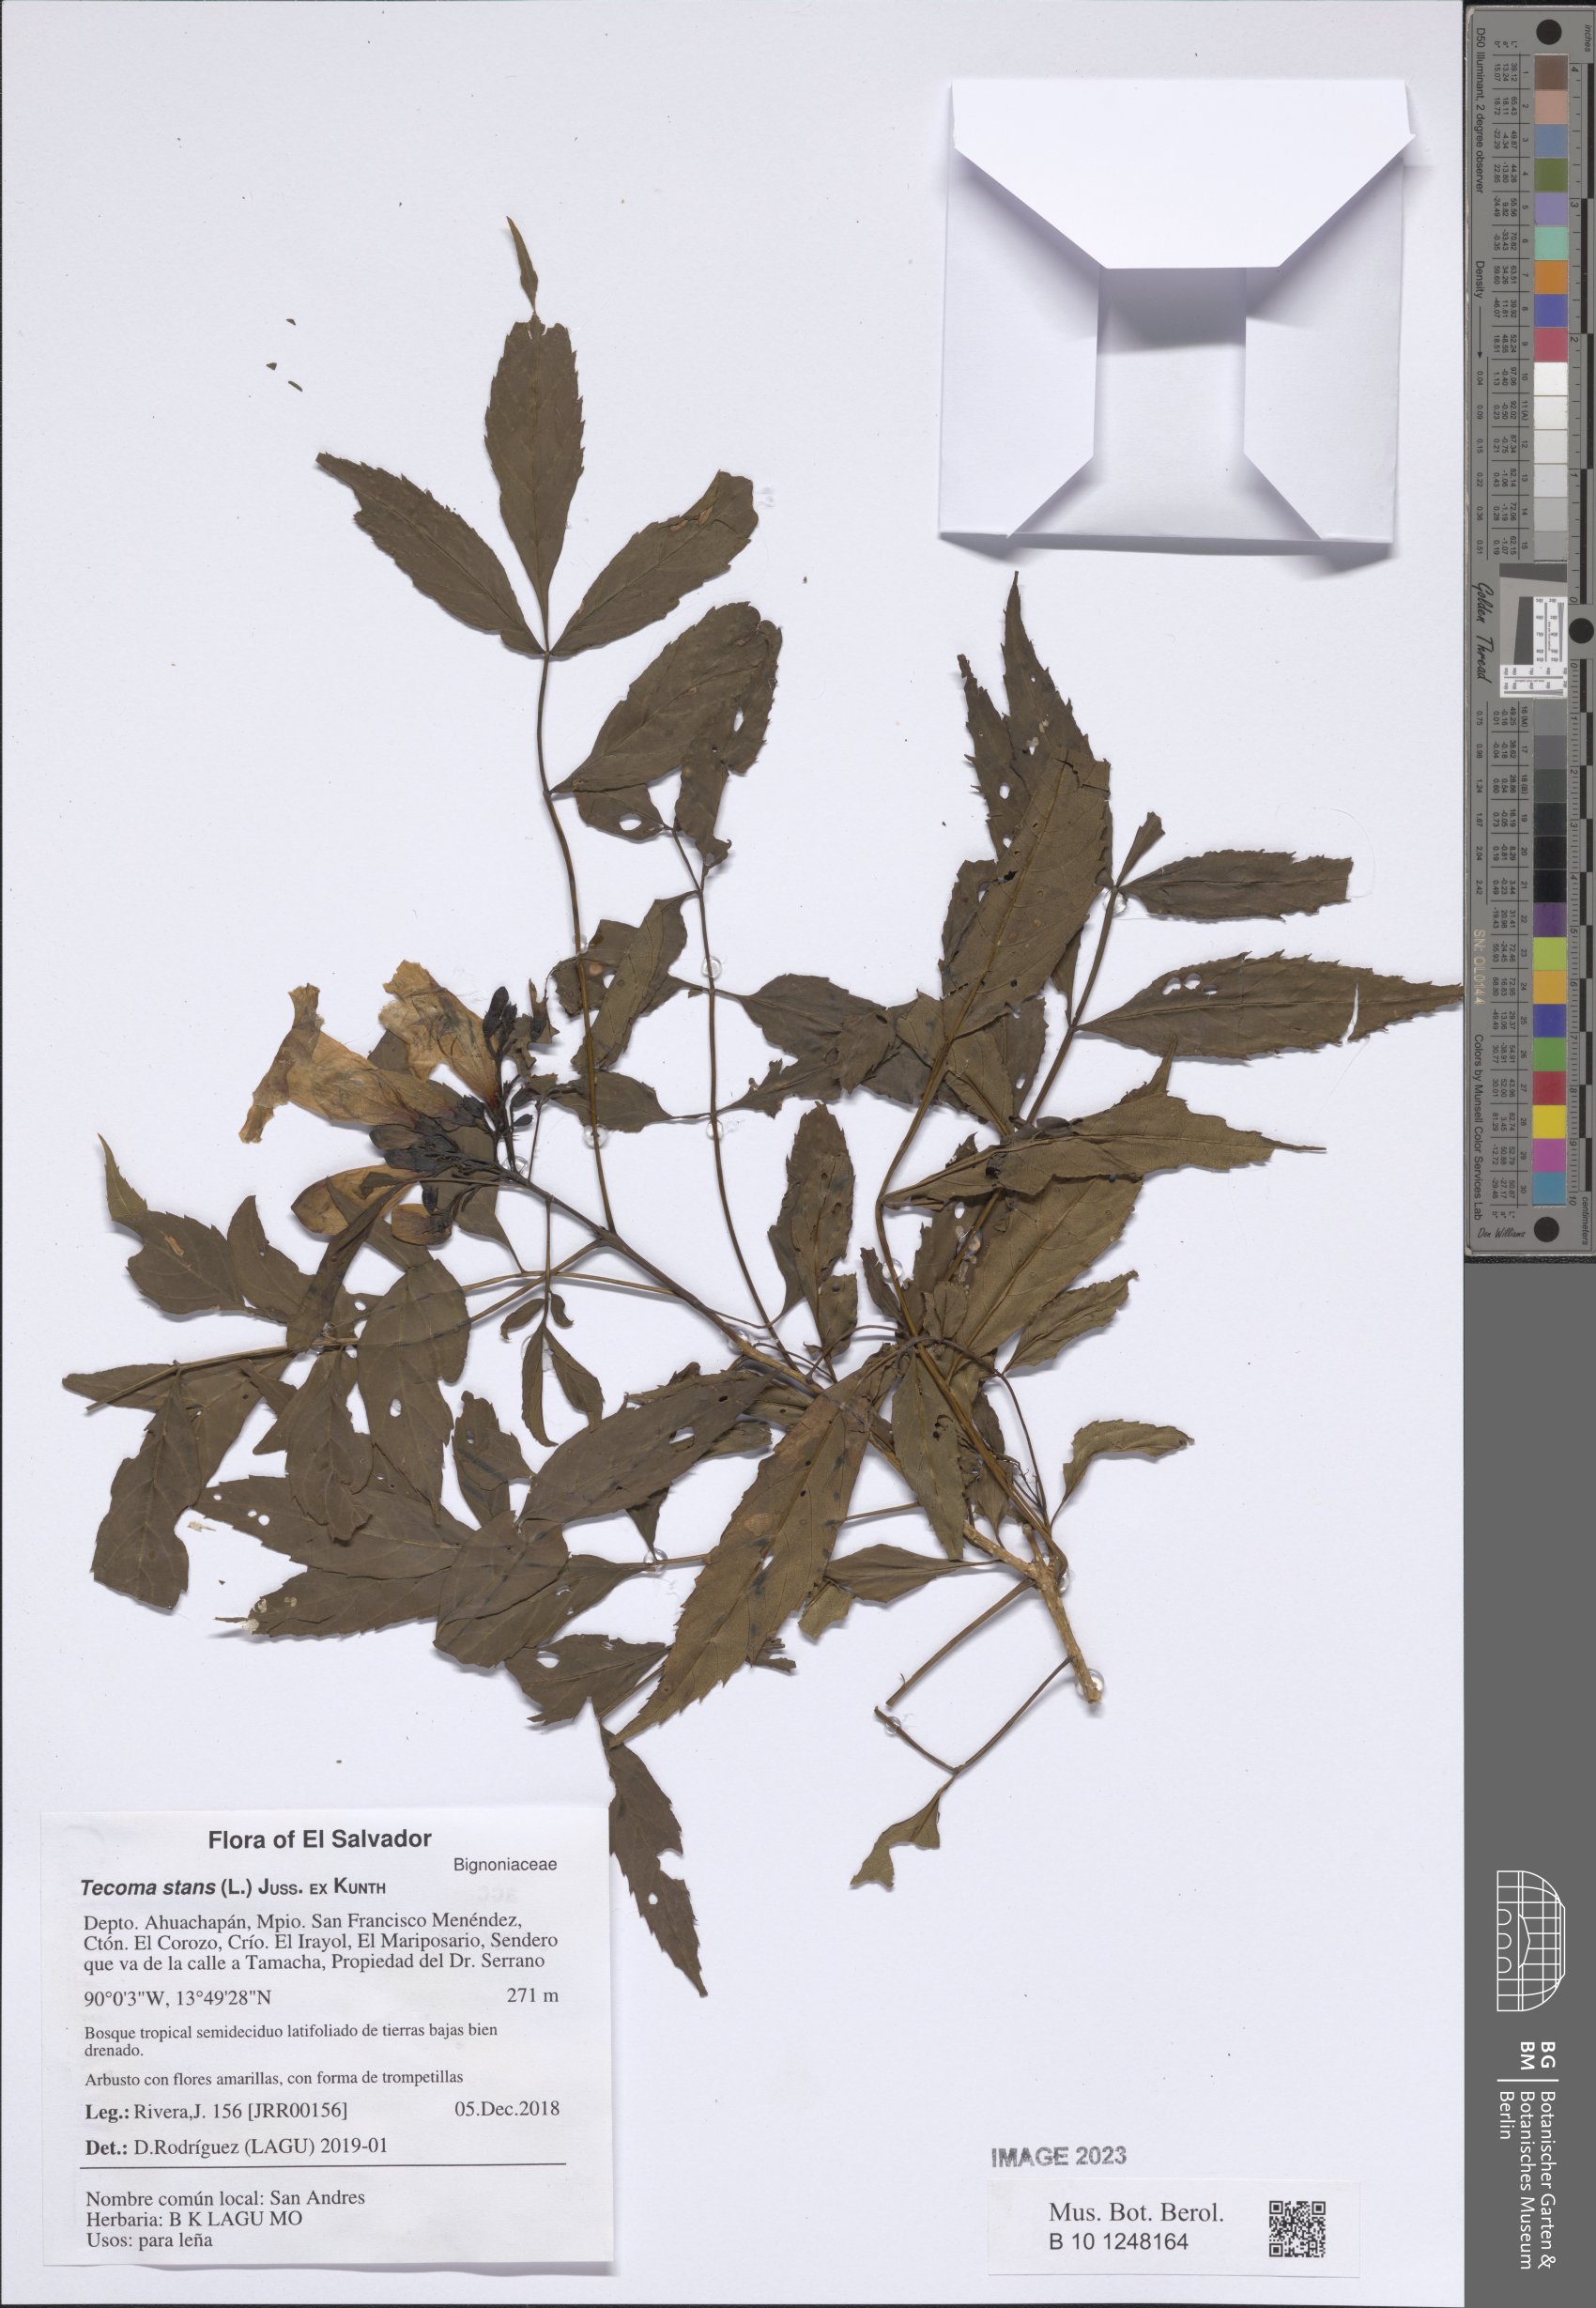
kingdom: Plantae
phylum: Tracheophyta
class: Magnoliopsida
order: Lamiales
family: Bignoniaceae
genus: Tecoma
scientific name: Tecoma stans
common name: Yellow trumpetbush
